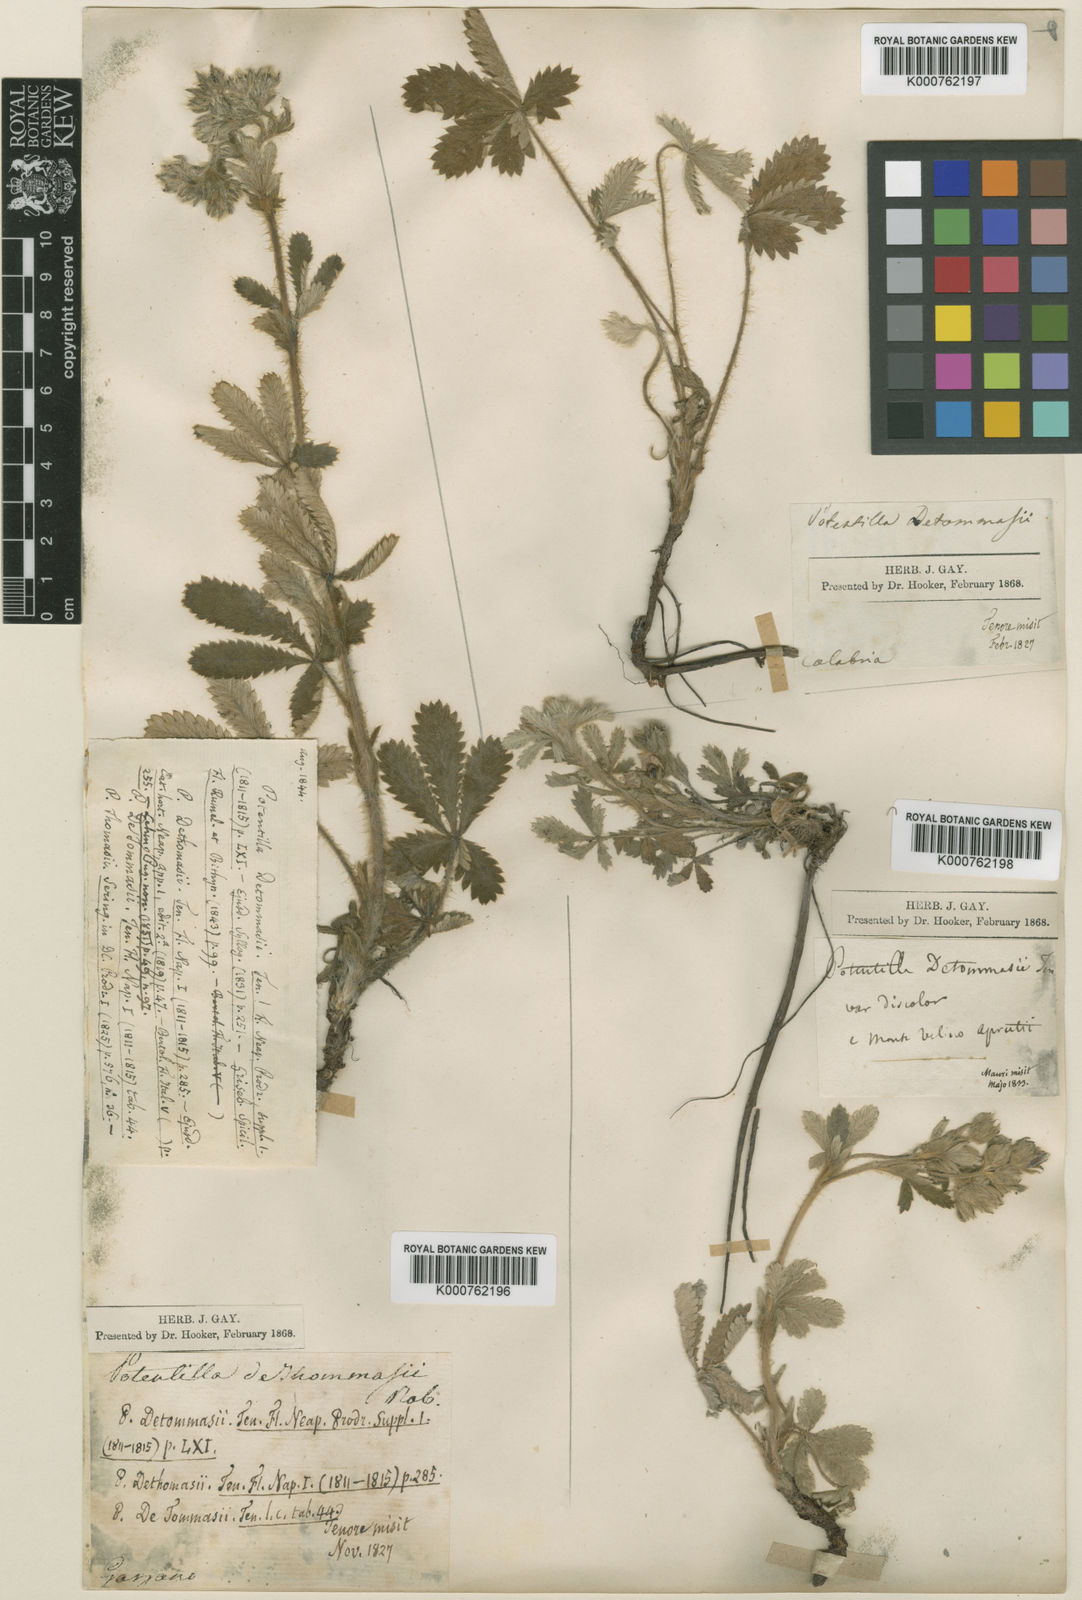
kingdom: Plantae
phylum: Tracheophyta
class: Magnoliopsida
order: Rosales
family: Rosaceae
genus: Potentilla
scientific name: Potentilla detommasii
